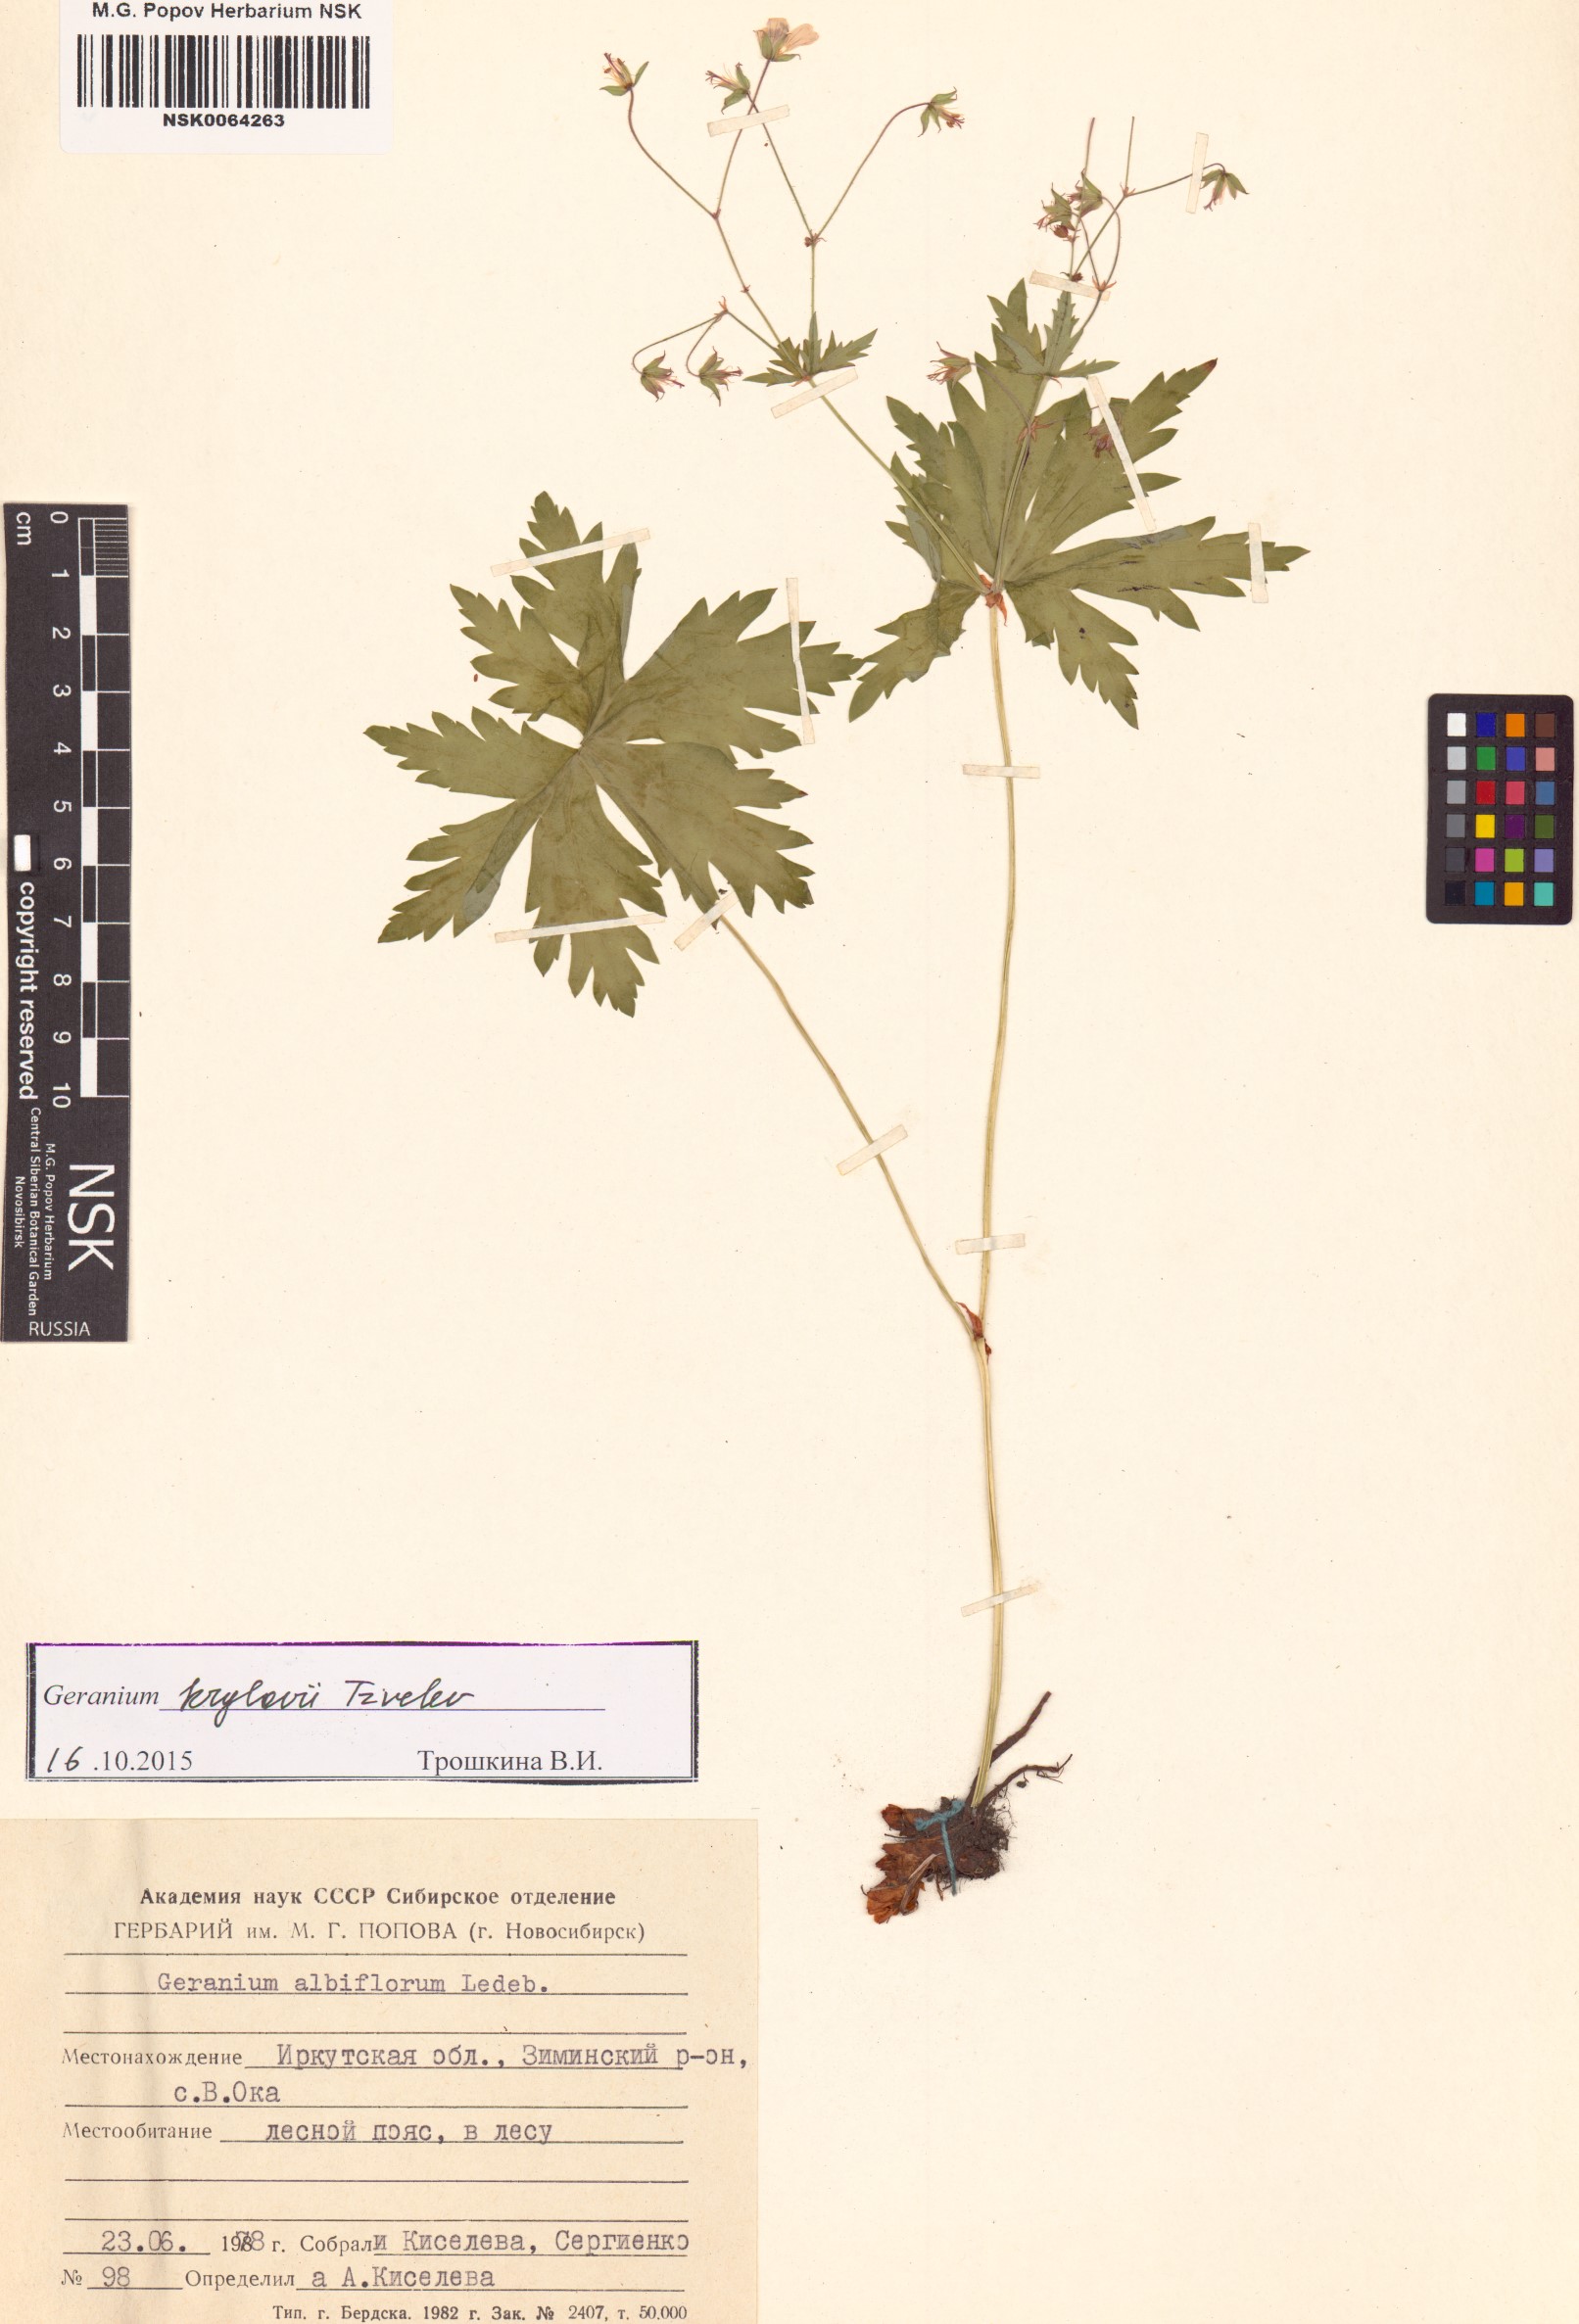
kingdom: Plantae
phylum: Tracheophyta
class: Magnoliopsida
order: Geraniales
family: Geraniaceae
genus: Geranium
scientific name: Geranium sylvaticum
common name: Wood crane's-bill
